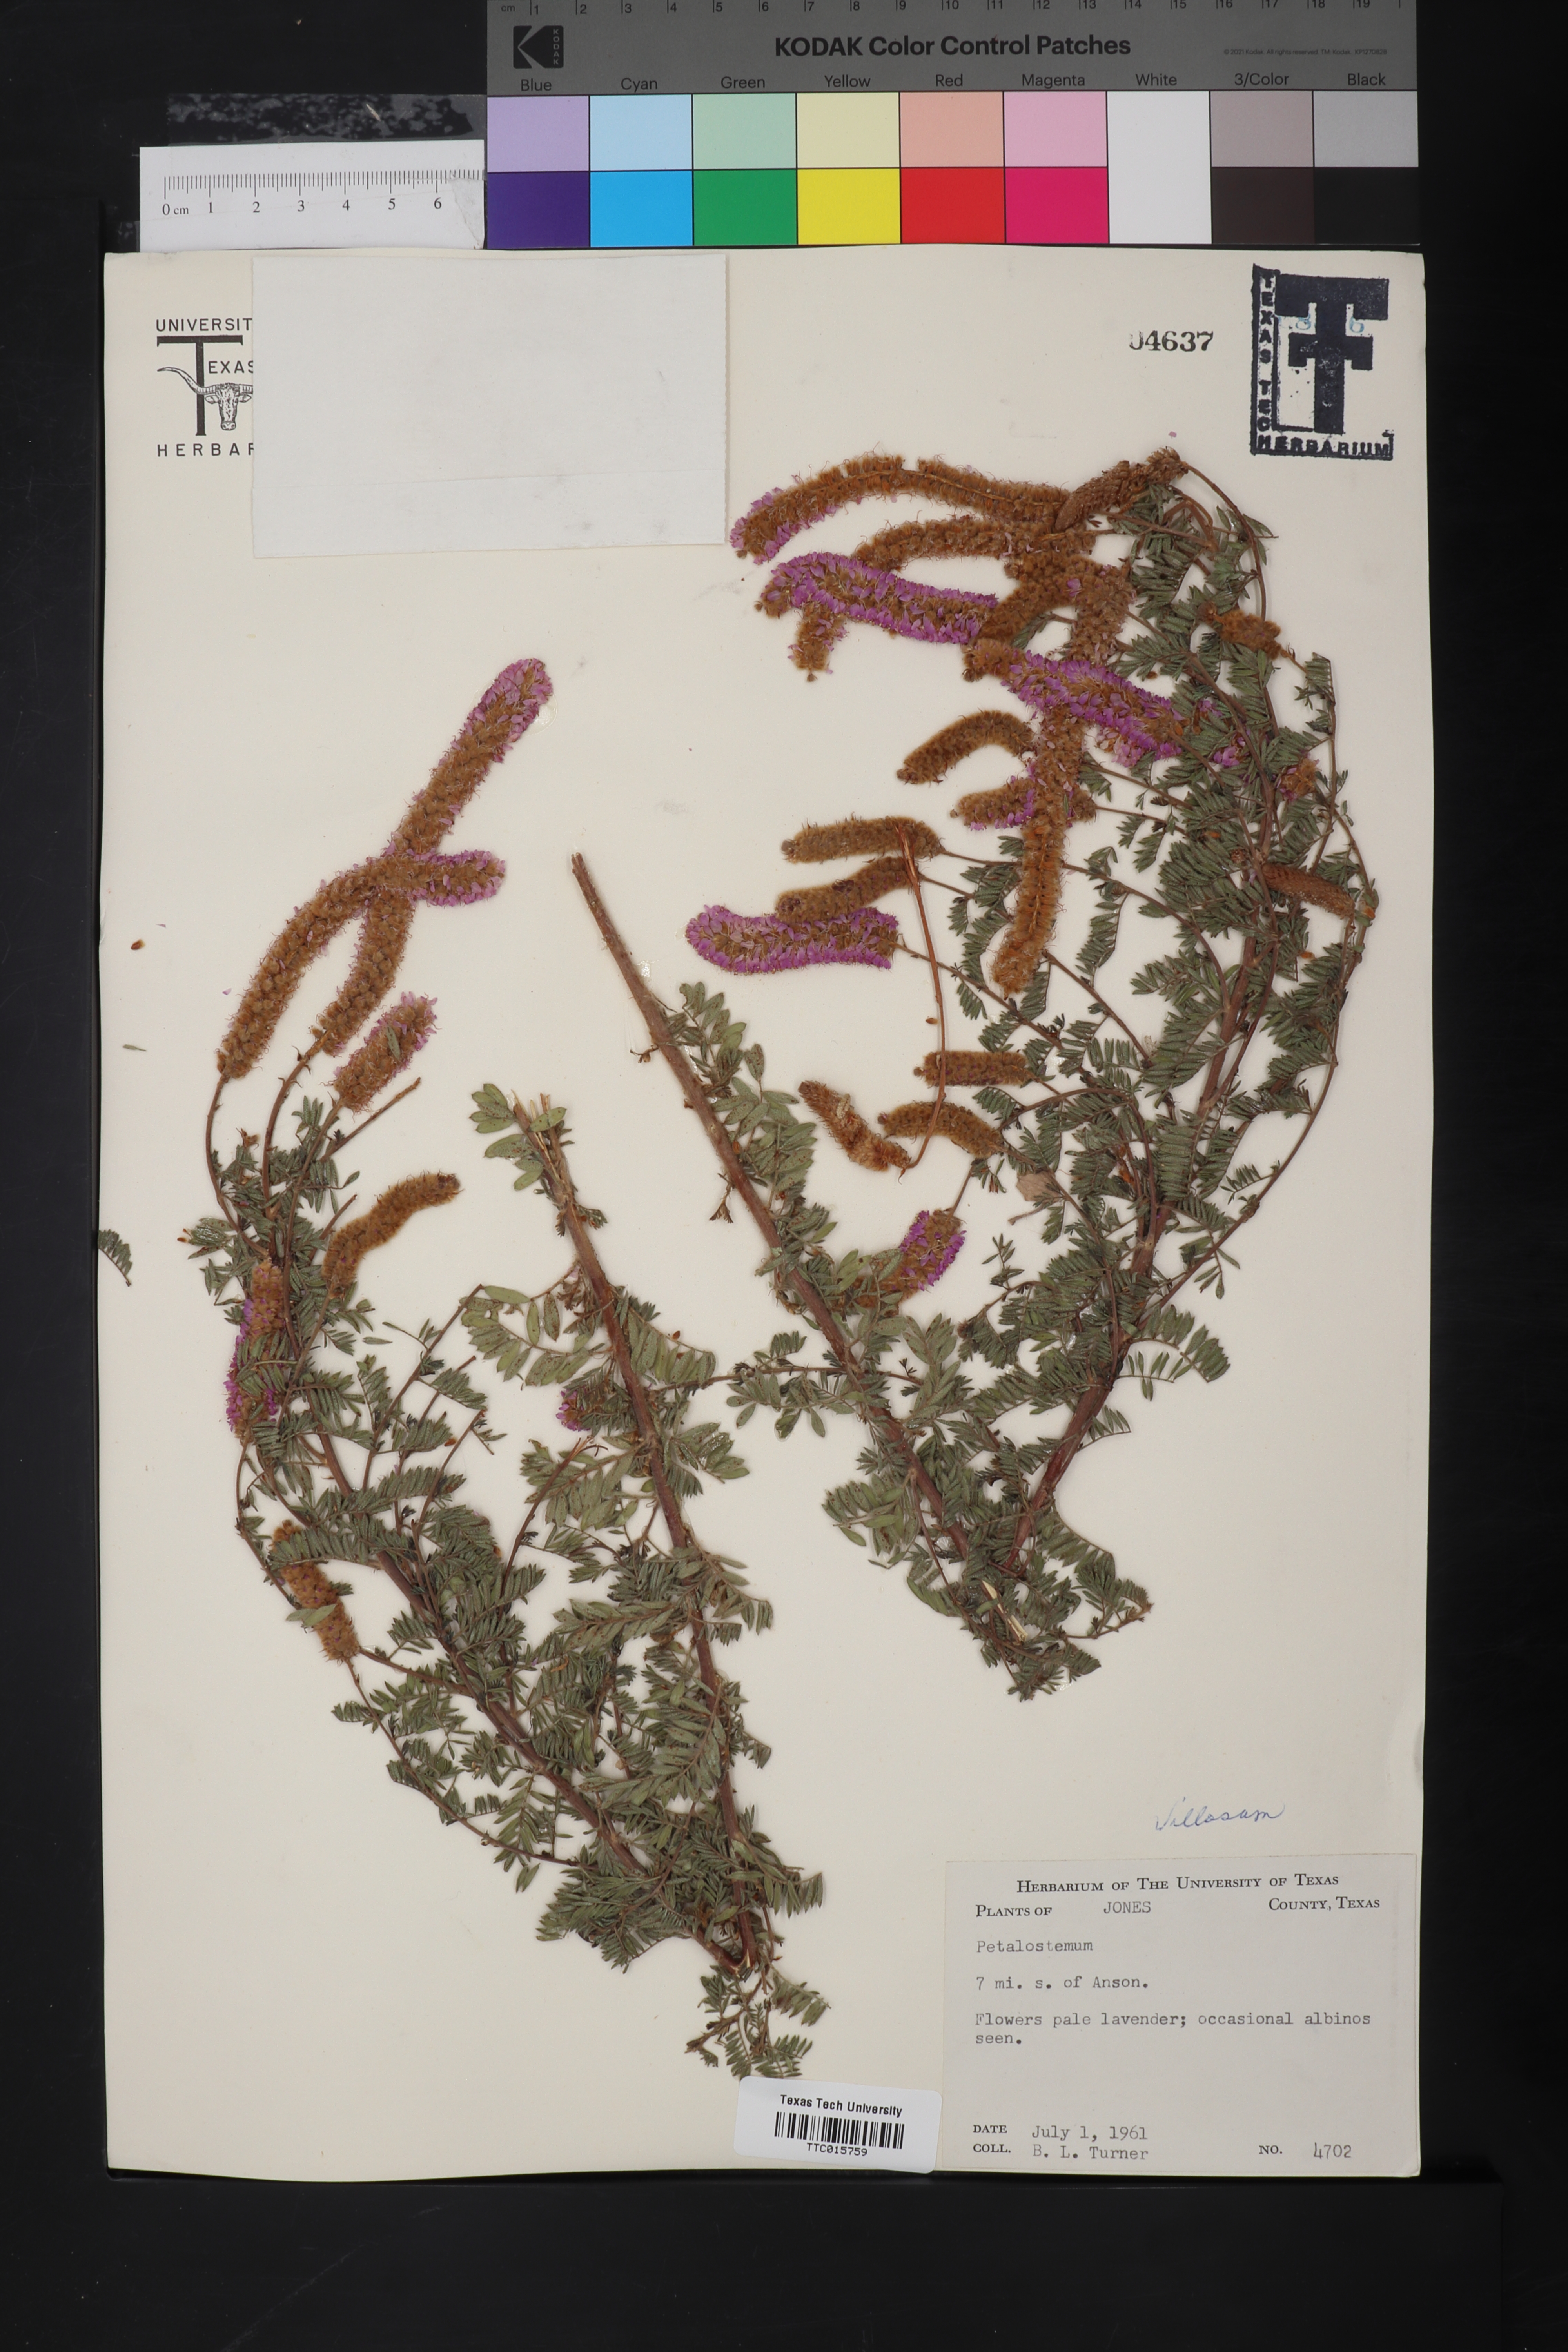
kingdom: Plantae
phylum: Tracheophyta
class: Magnoliopsida
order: Fabales
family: Fabaceae
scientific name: Fabaceae
